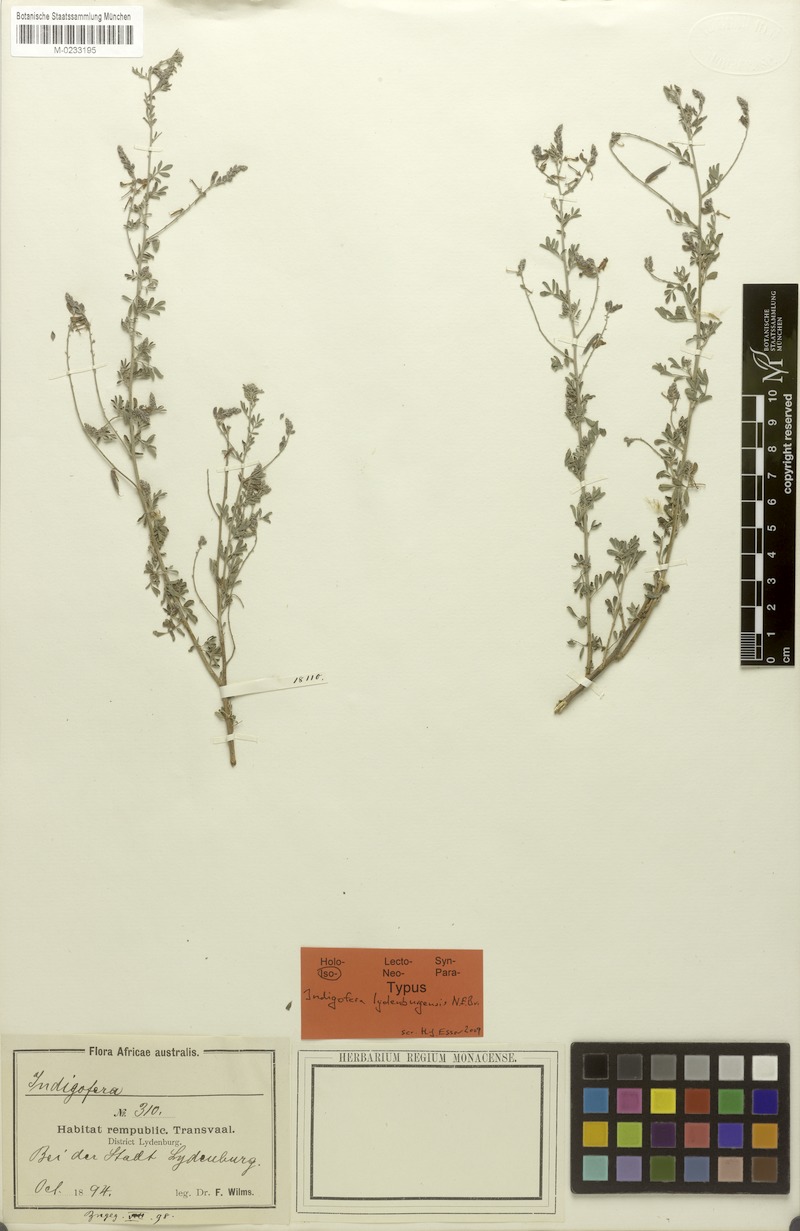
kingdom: Plantae
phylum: Tracheophyta
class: Magnoliopsida
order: Fabales
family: Fabaceae
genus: Indigofera
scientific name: Indigofera lydenburgensis
